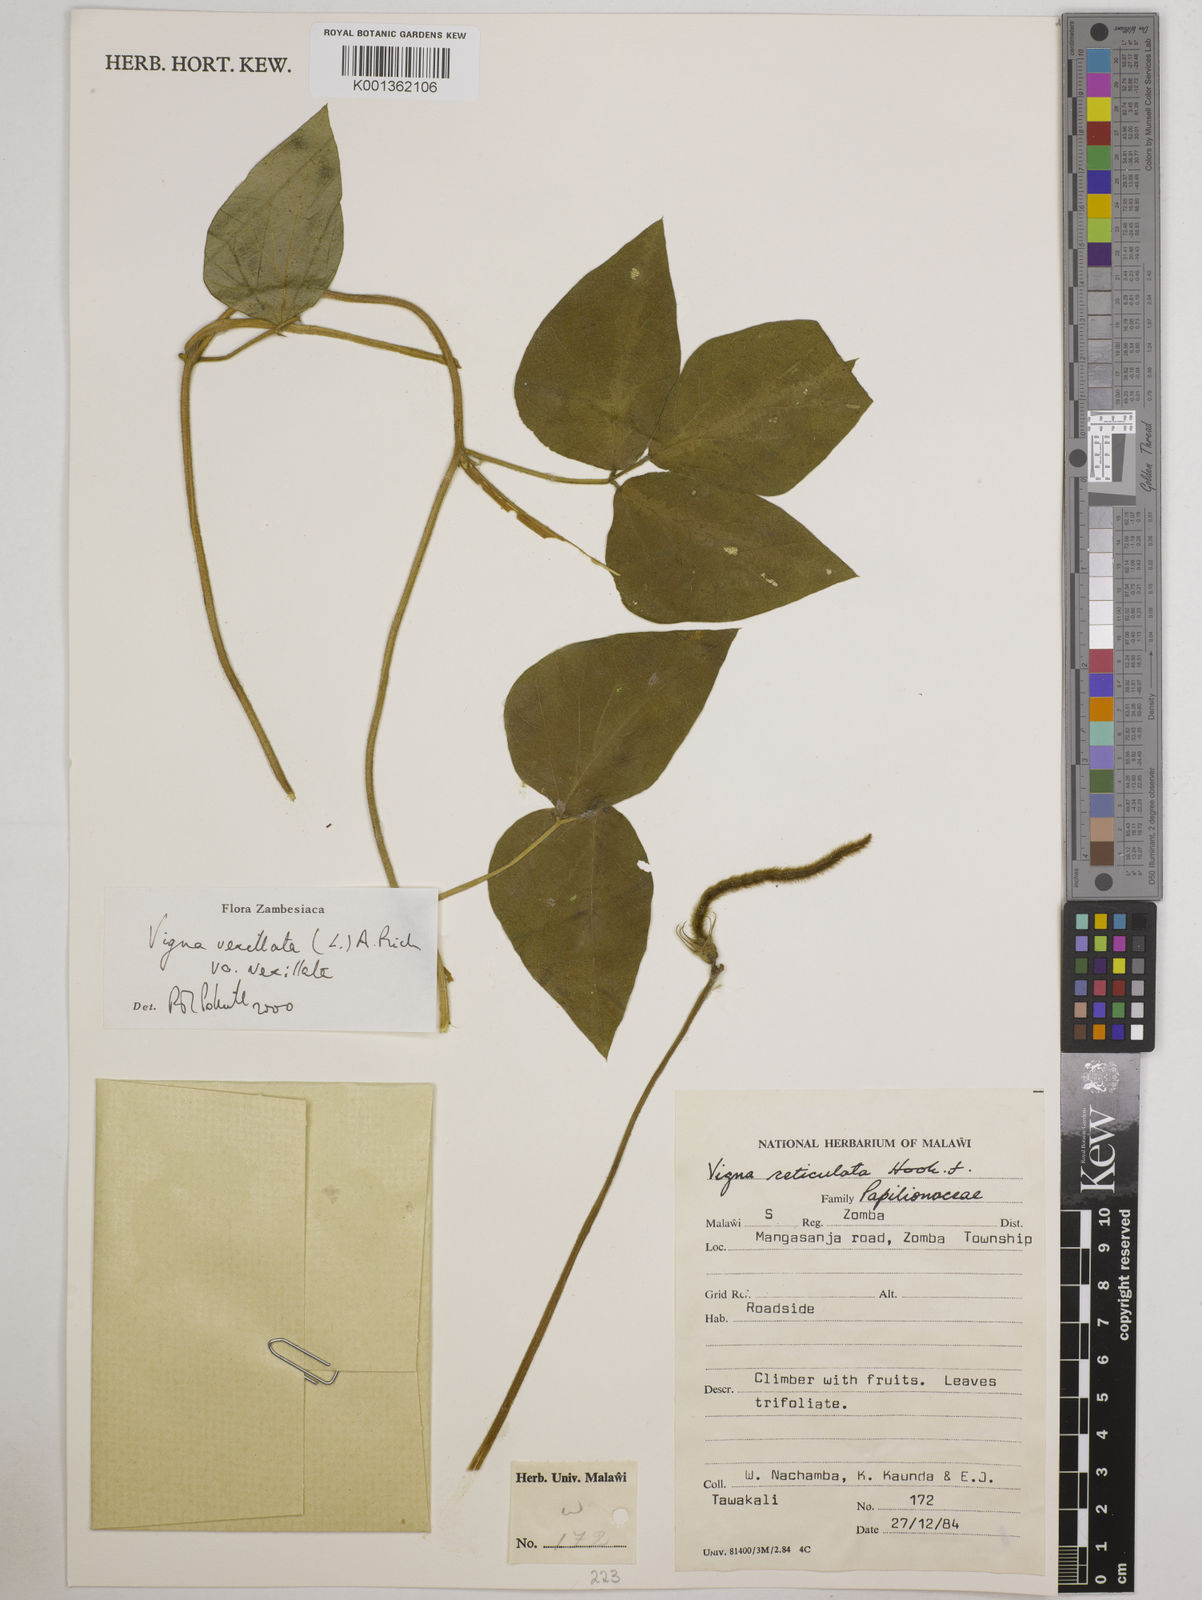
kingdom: Plantae
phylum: Tracheophyta
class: Magnoliopsida
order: Fabales
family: Fabaceae
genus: Vigna
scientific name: Vigna vexillata
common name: Zombi pea
